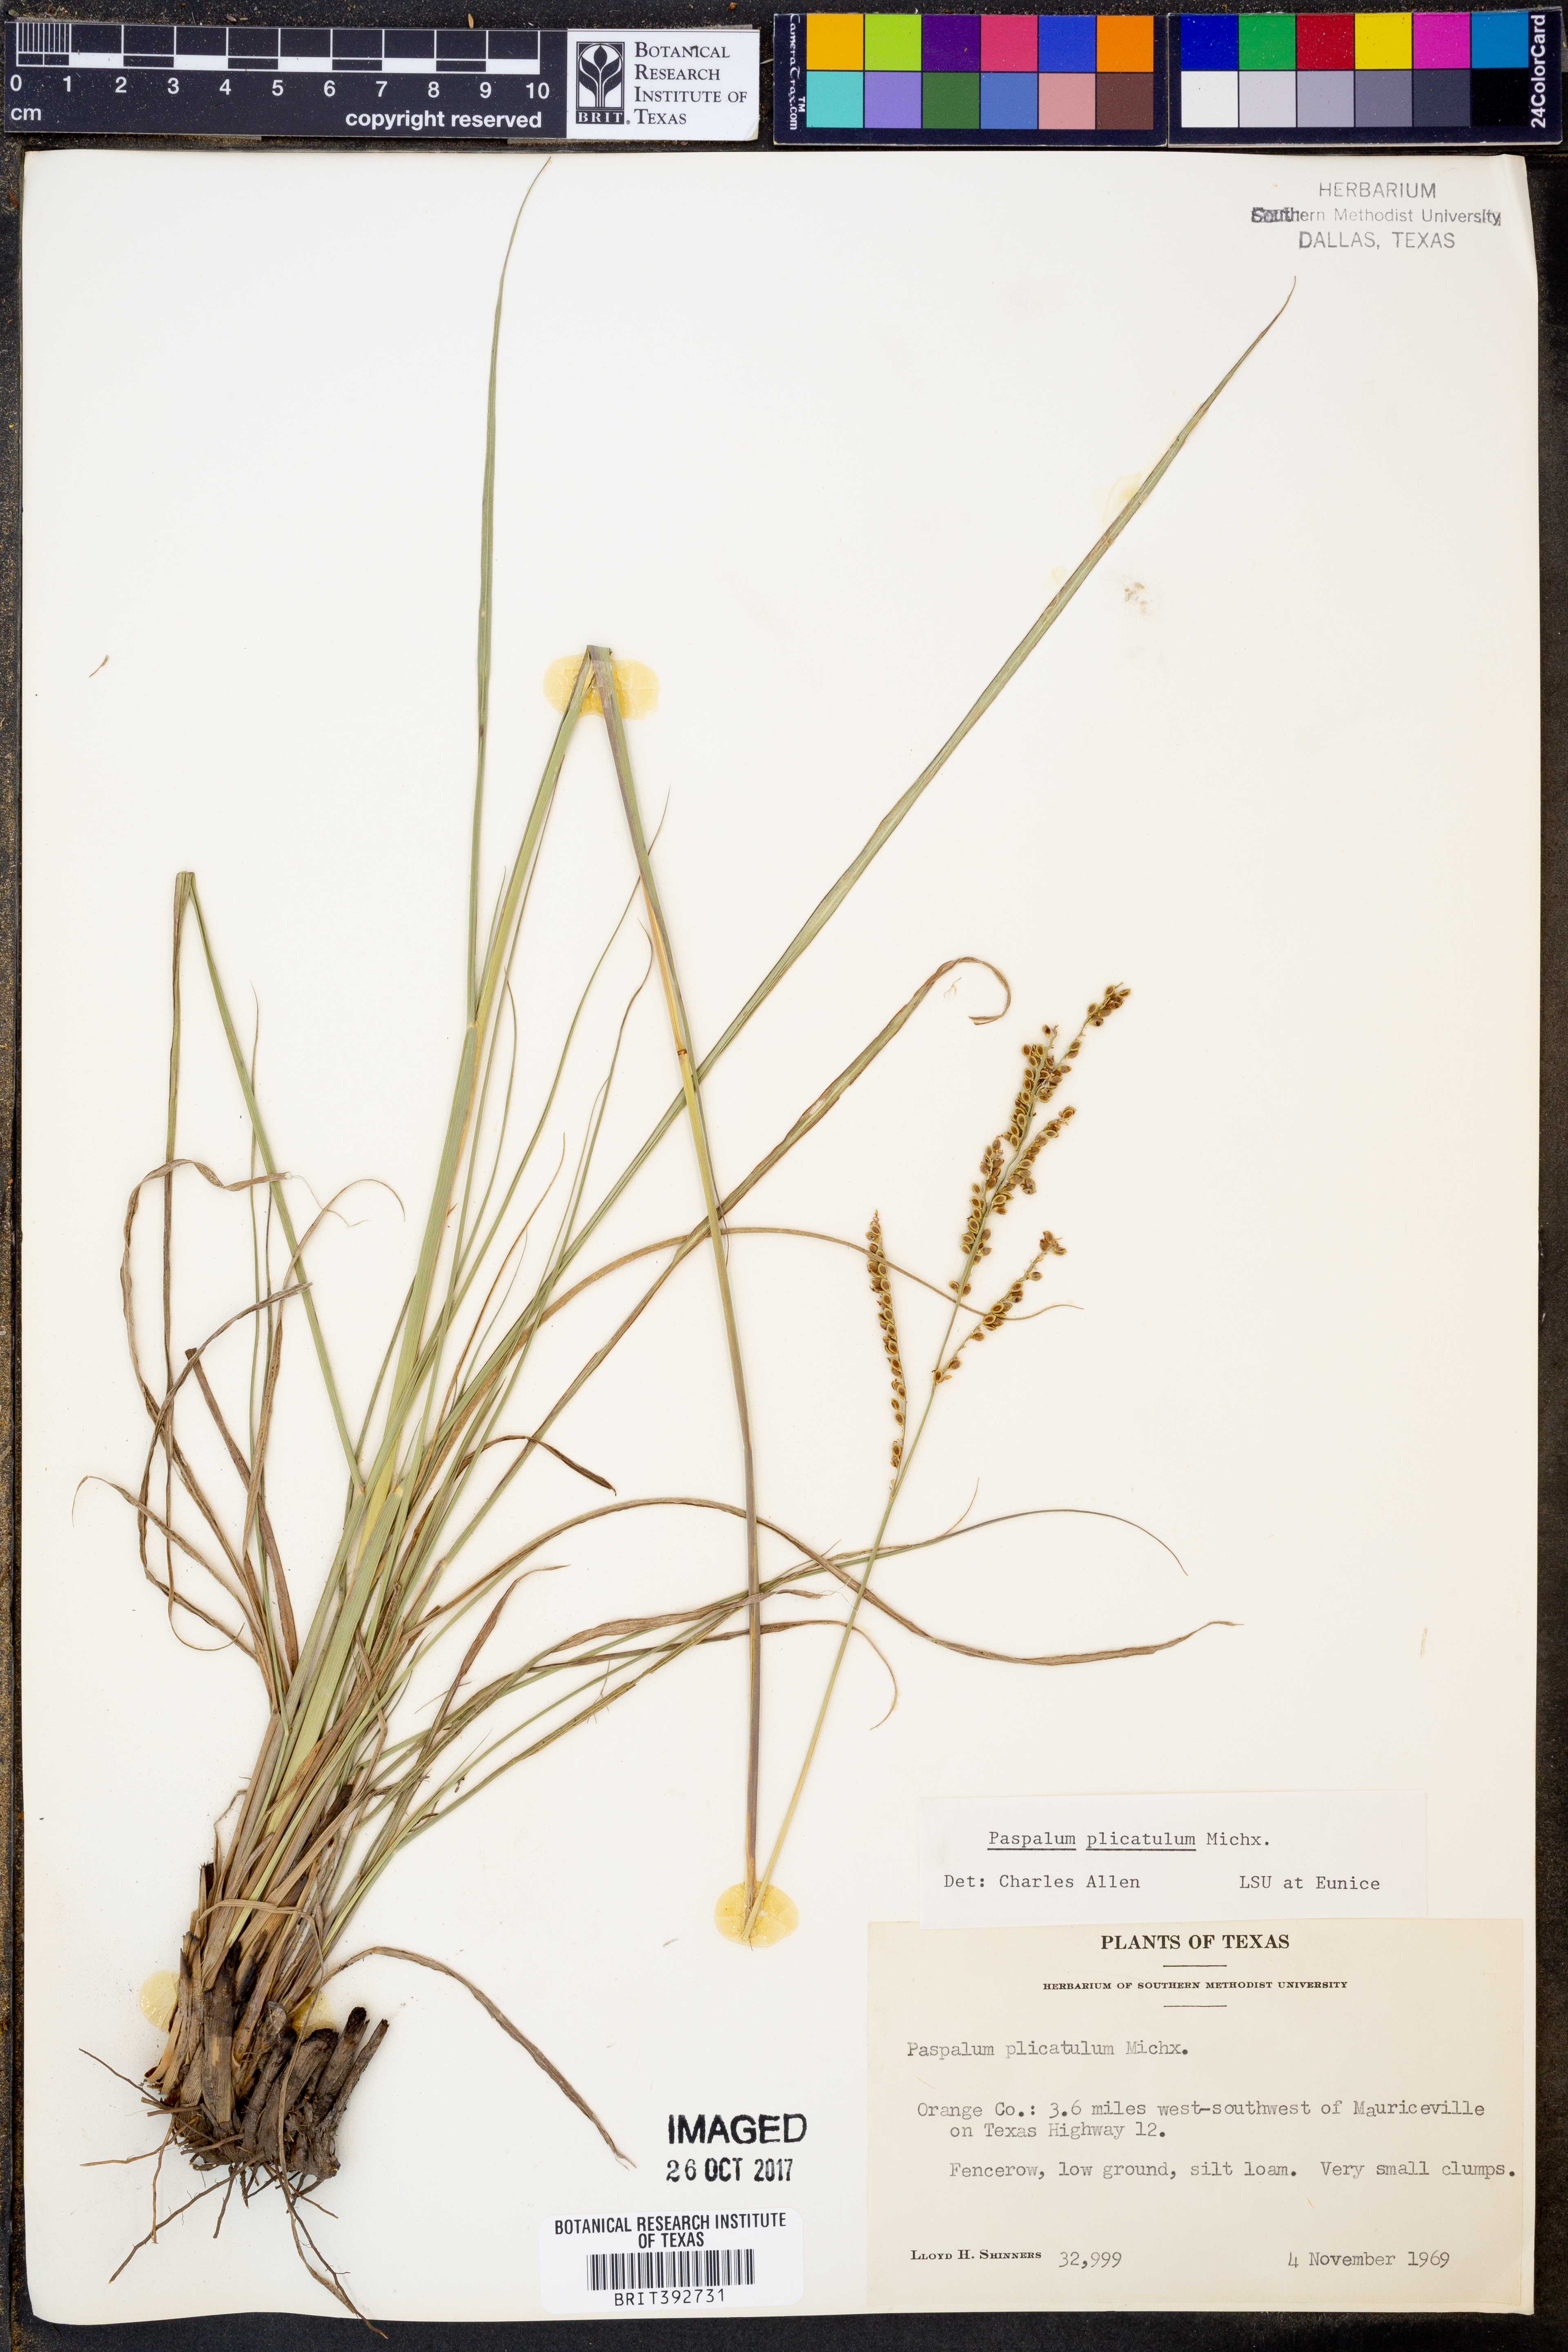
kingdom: Plantae
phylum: Tracheophyta
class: Liliopsida
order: Poales
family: Poaceae
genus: Paspalum
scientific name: Paspalum plicatulum
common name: Top paspalum
